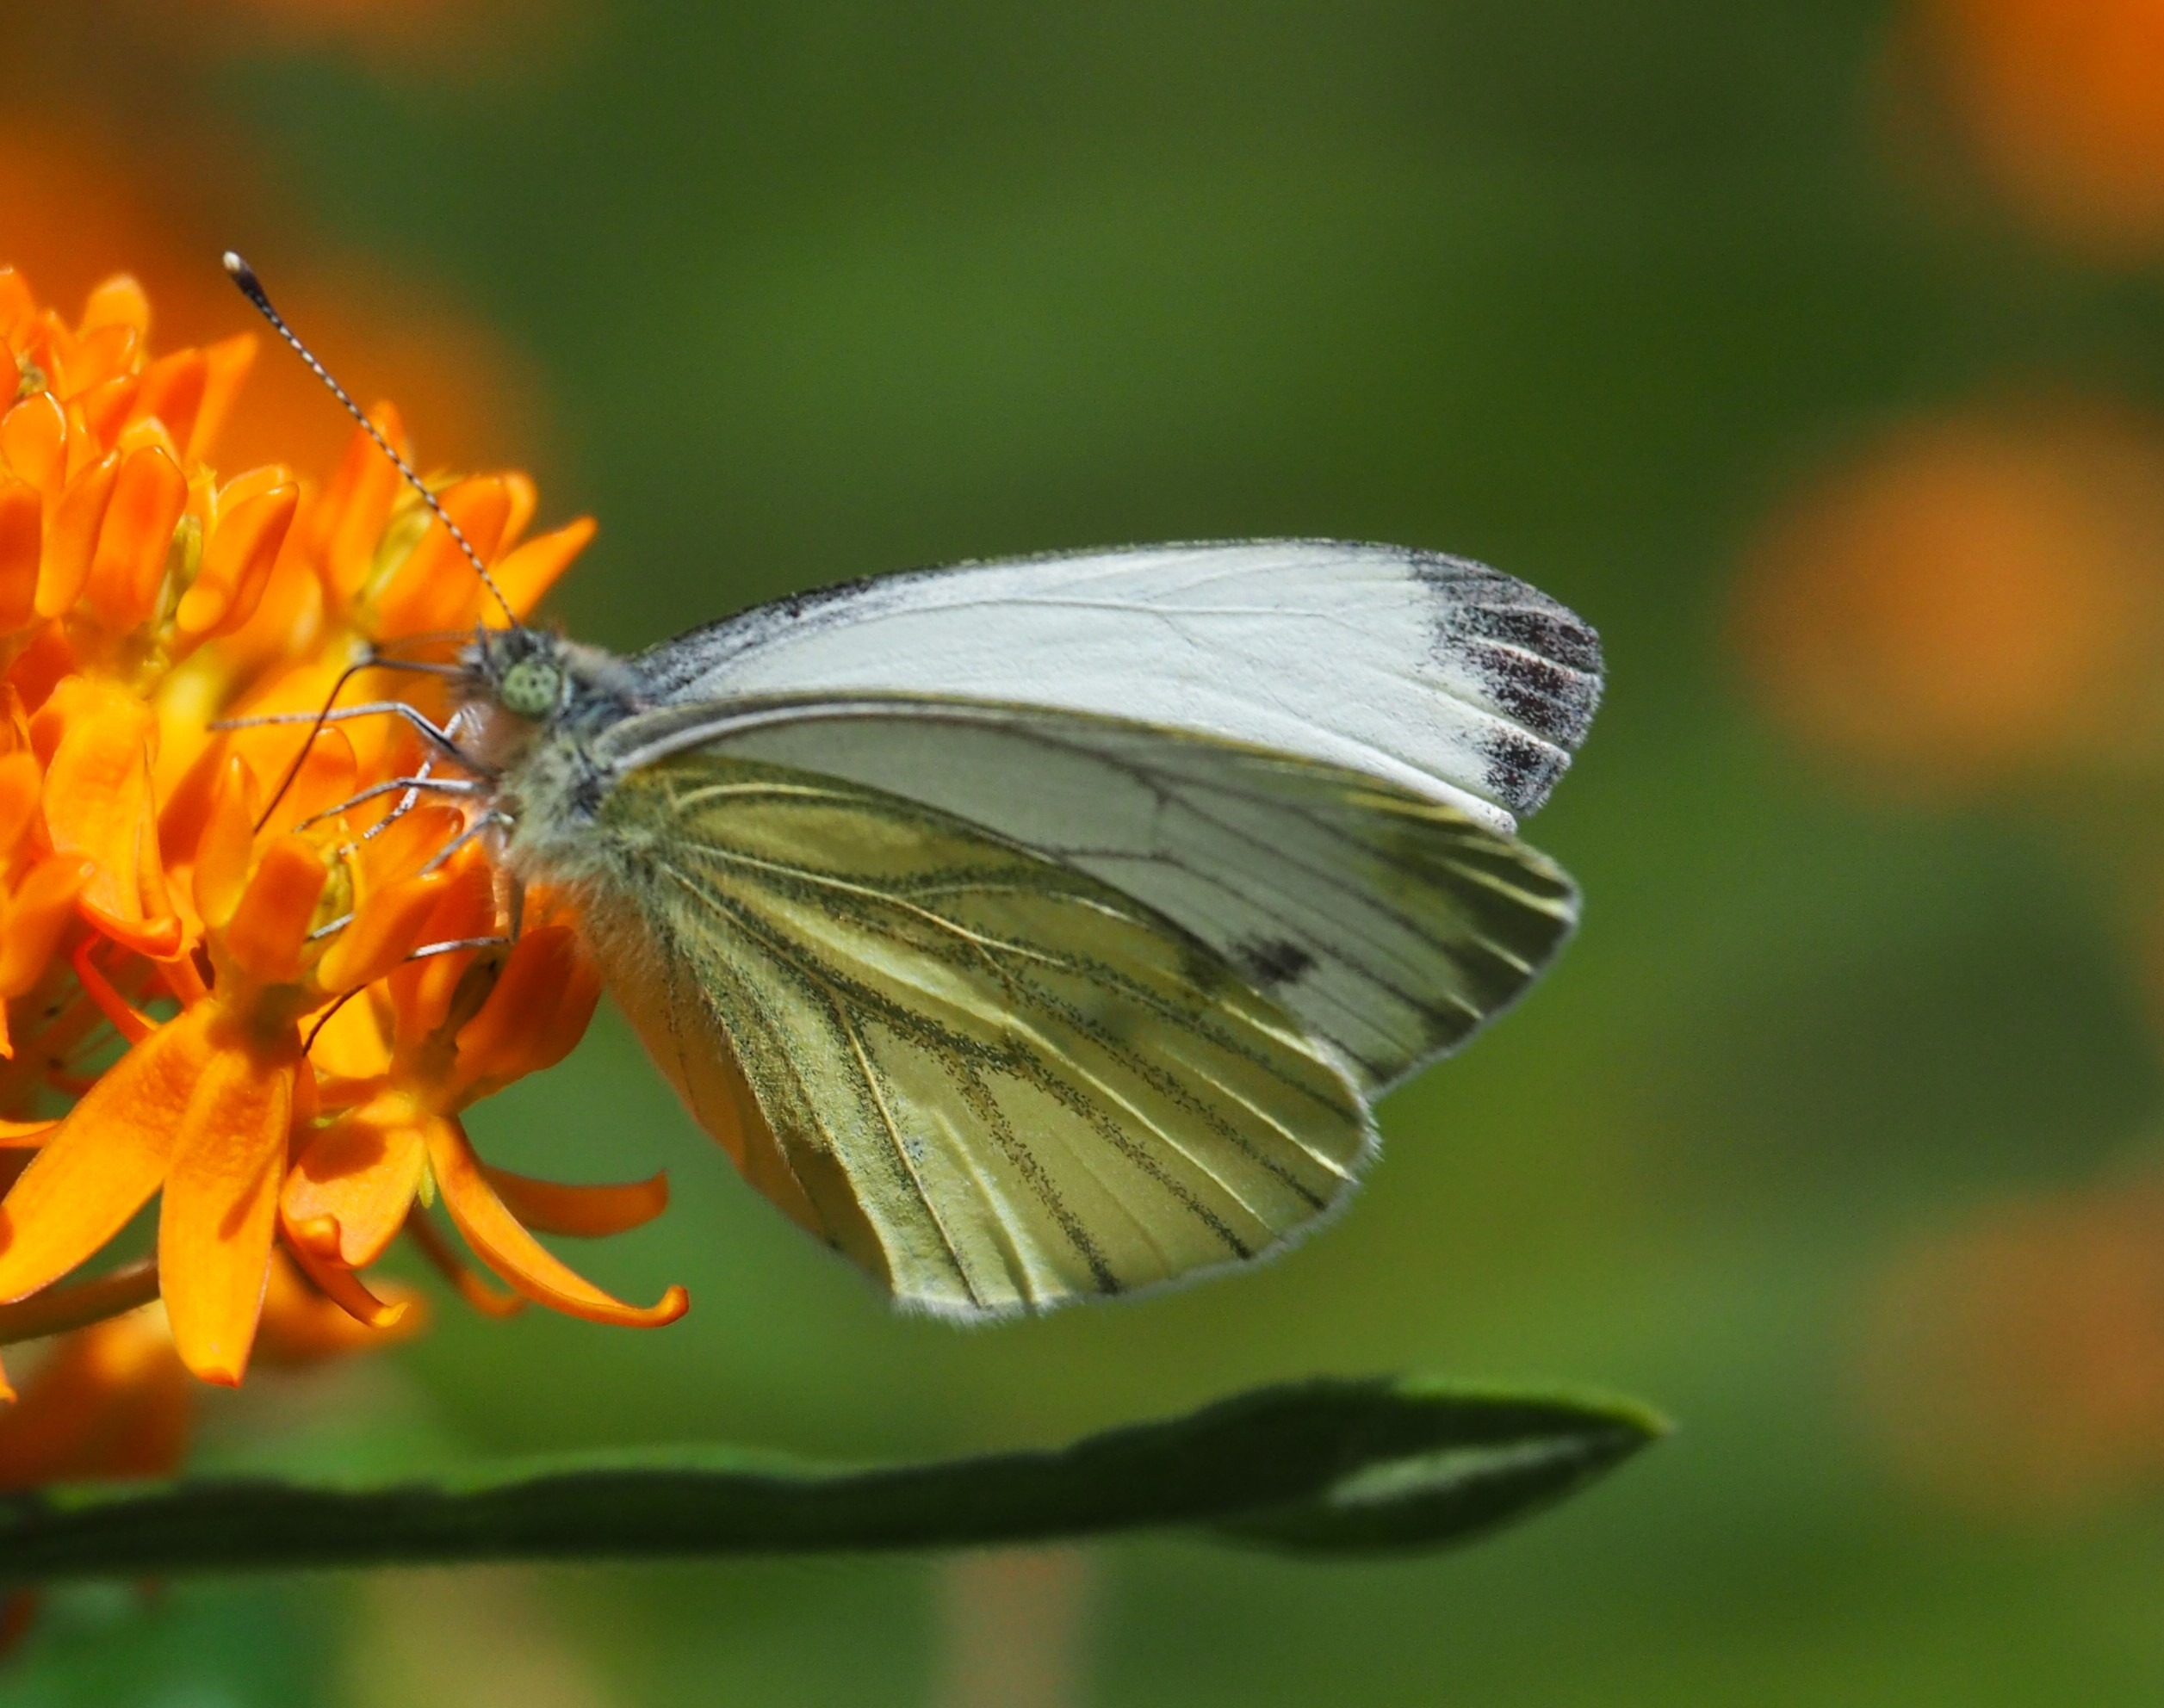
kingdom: Animalia
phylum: Arthropoda
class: Insecta
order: Lepidoptera
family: Pieridae
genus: Pieris
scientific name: Pieris napi
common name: Grønåret kålsommerfugl
